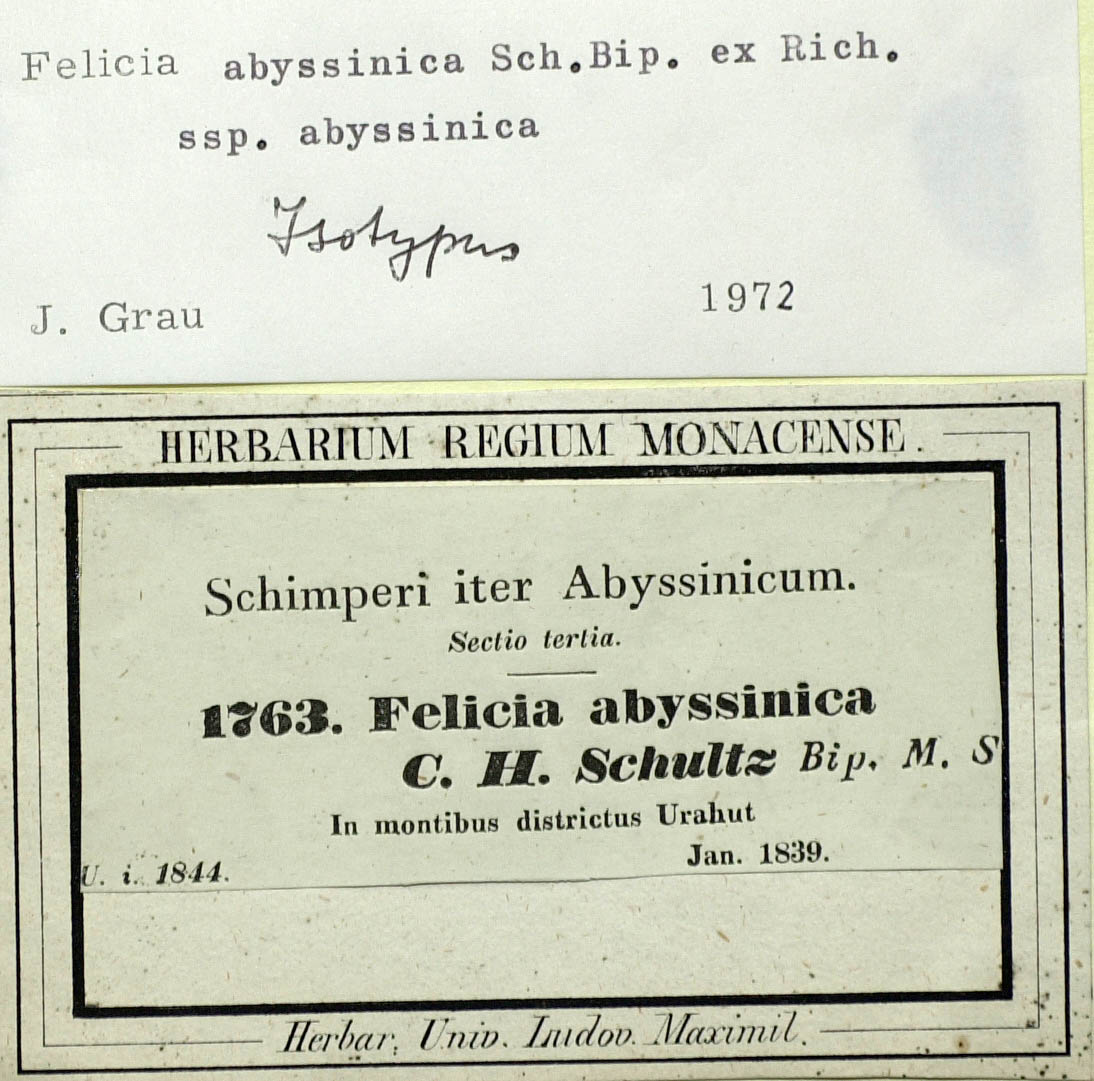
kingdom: Plantae
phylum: Tracheophyta
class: Magnoliopsida
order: Asterales
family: Asteraceae
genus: Felicia
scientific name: Felicia abyssinica
